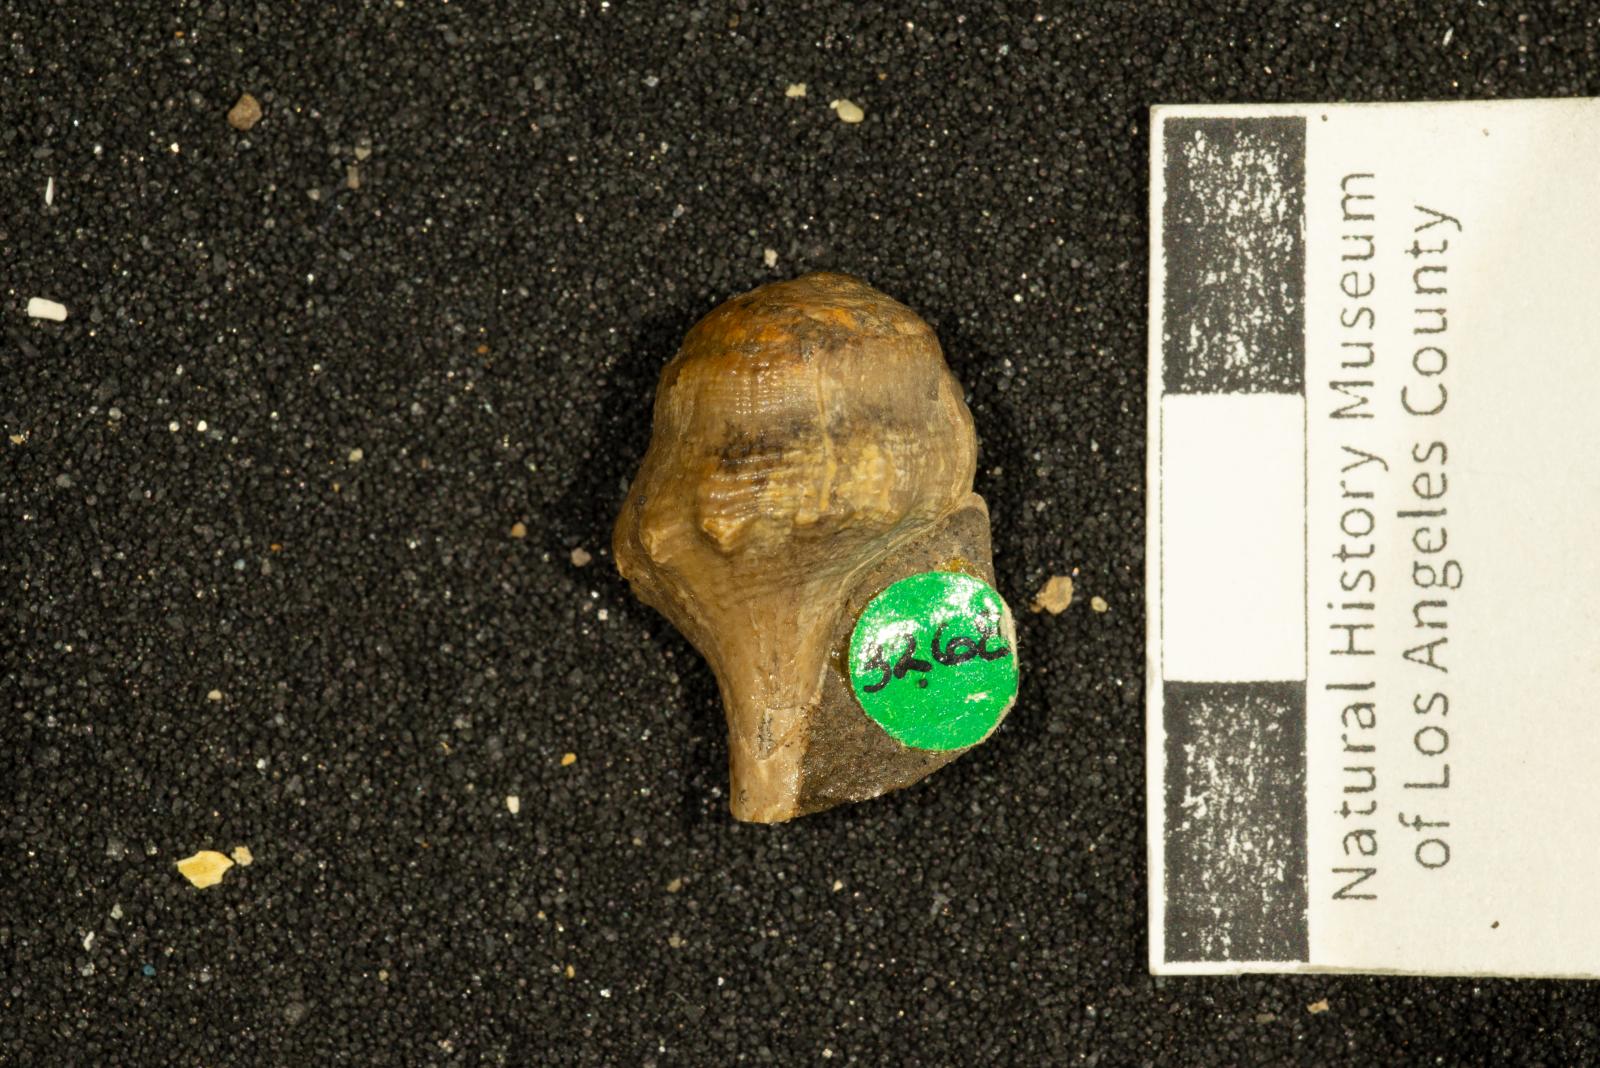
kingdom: Animalia
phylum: Mollusca
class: Gastropoda
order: Neogastropoda
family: Perissityidae
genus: Perissitys
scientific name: Perissitys colocara
